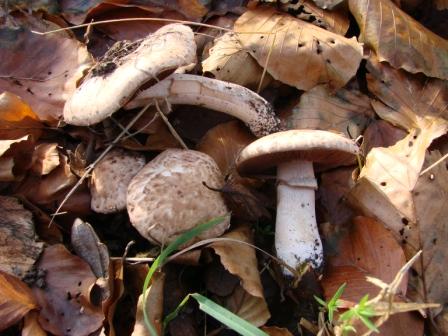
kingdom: Fungi
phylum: Basidiomycota
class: Agaricomycetes
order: Agaricales
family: Agaricaceae
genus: Agaricus
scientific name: Agaricus sylvaticus
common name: lille blod-champignon
